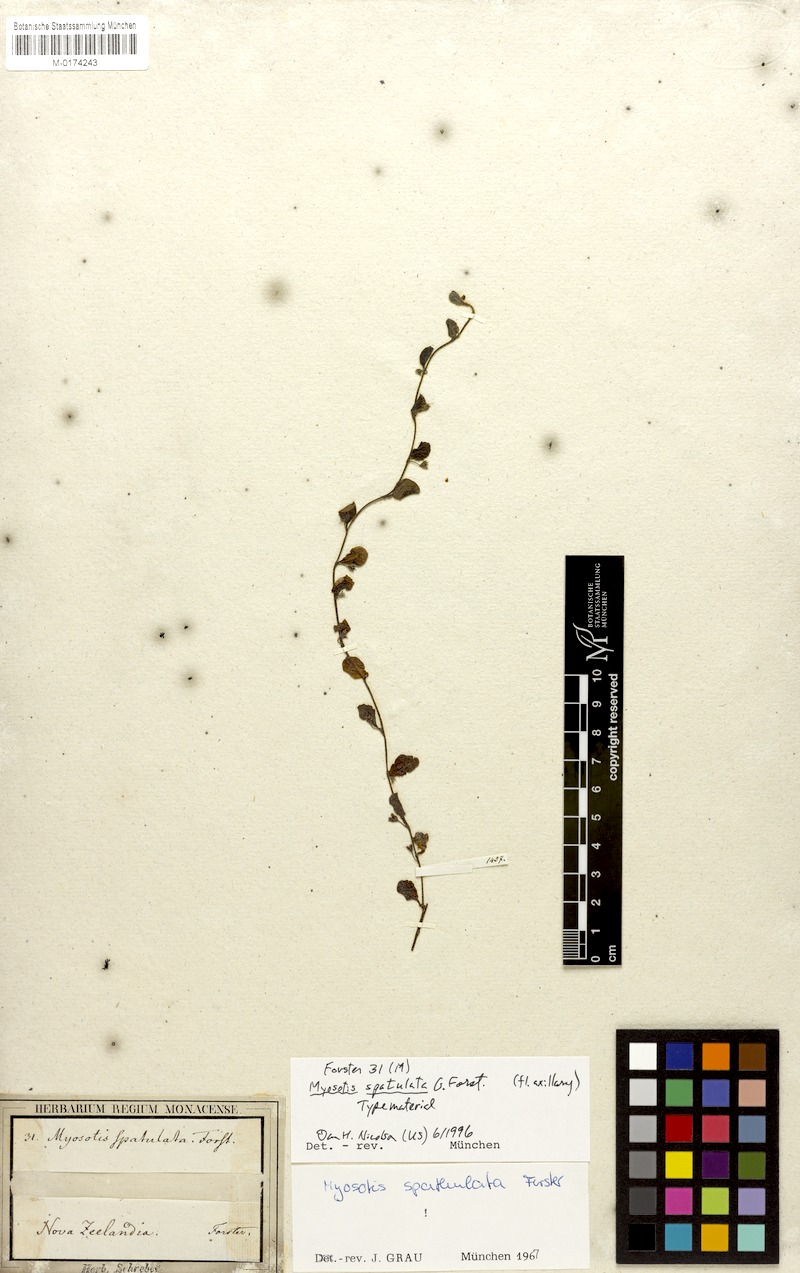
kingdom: Plantae
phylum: Tracheophyta
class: Magnoliopsida
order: Boraginales
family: Boraginaceae
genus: Myosotis
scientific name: Myosotis spathulata
